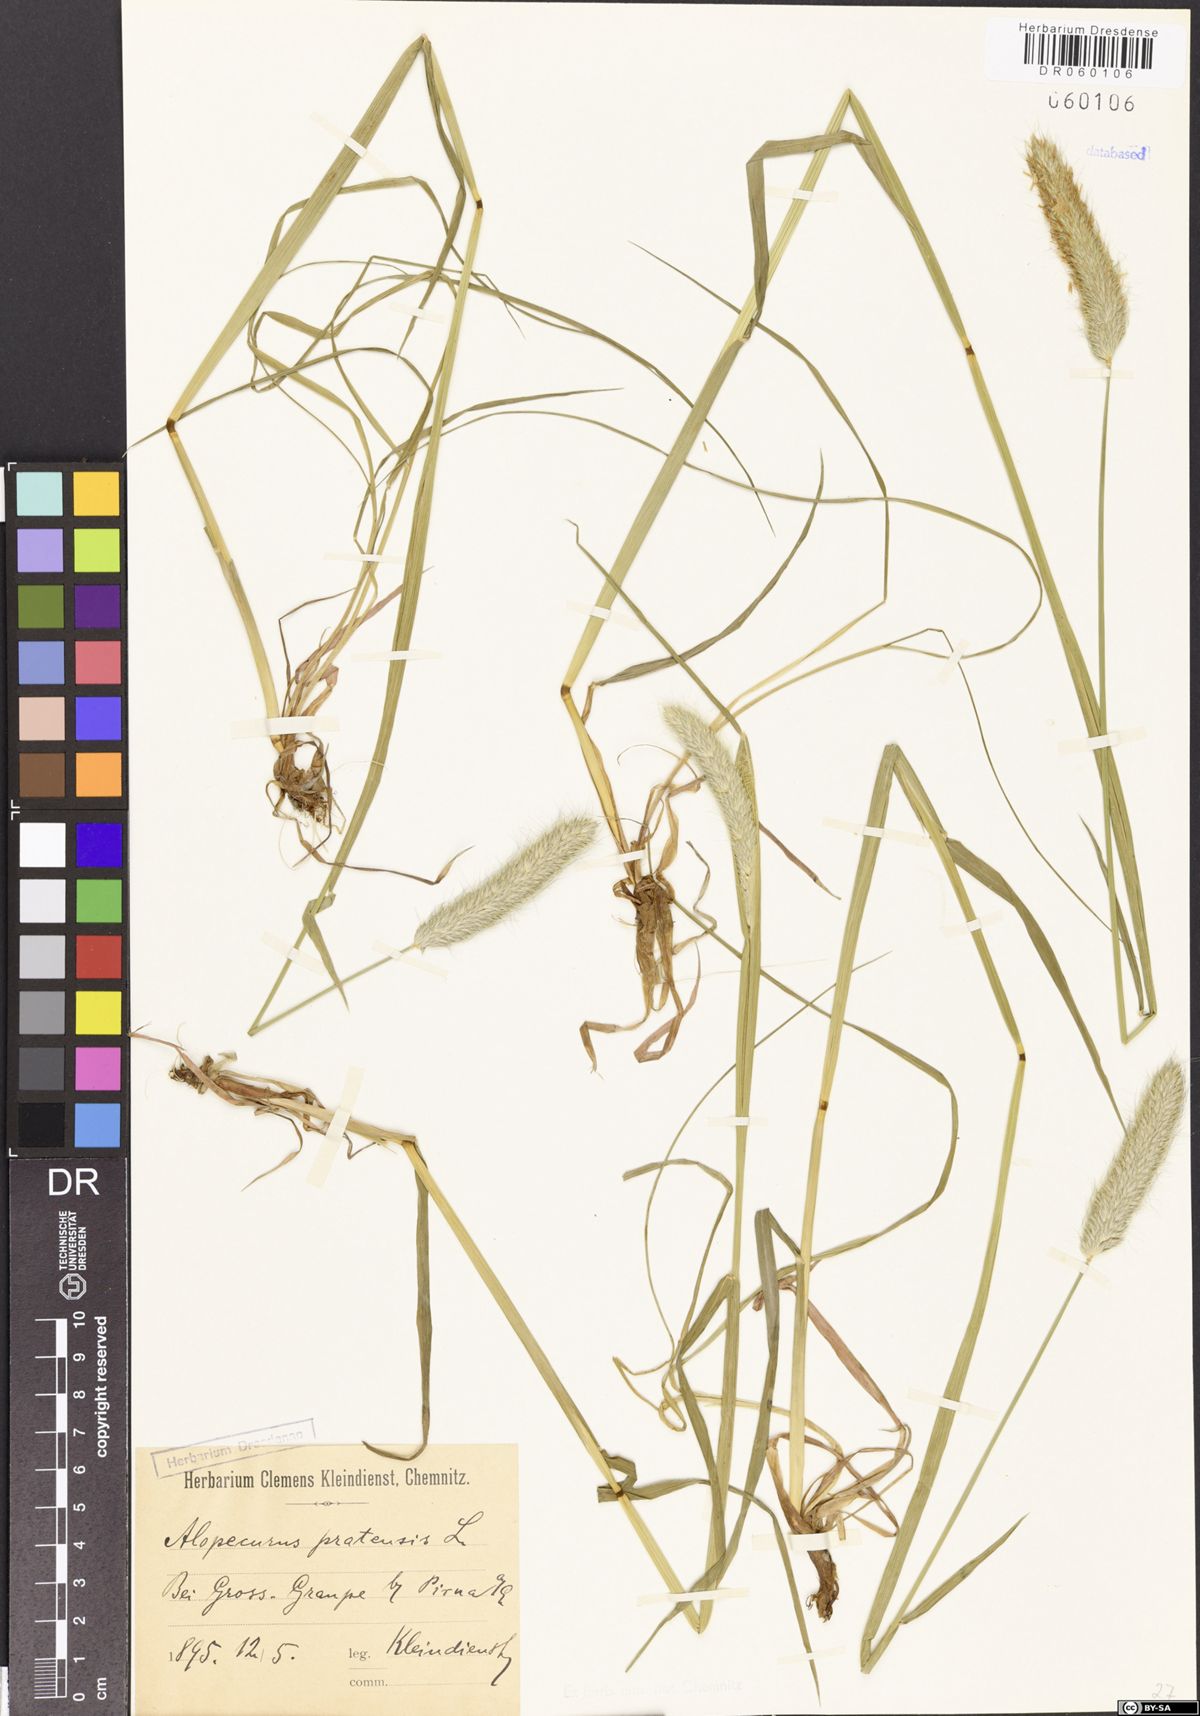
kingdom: Plantae
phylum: Tracheophyta
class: Liliopsida
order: Poales
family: Poaceae
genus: Alopecurus
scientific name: Alopecurus pratensis
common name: Meadow foxtail
